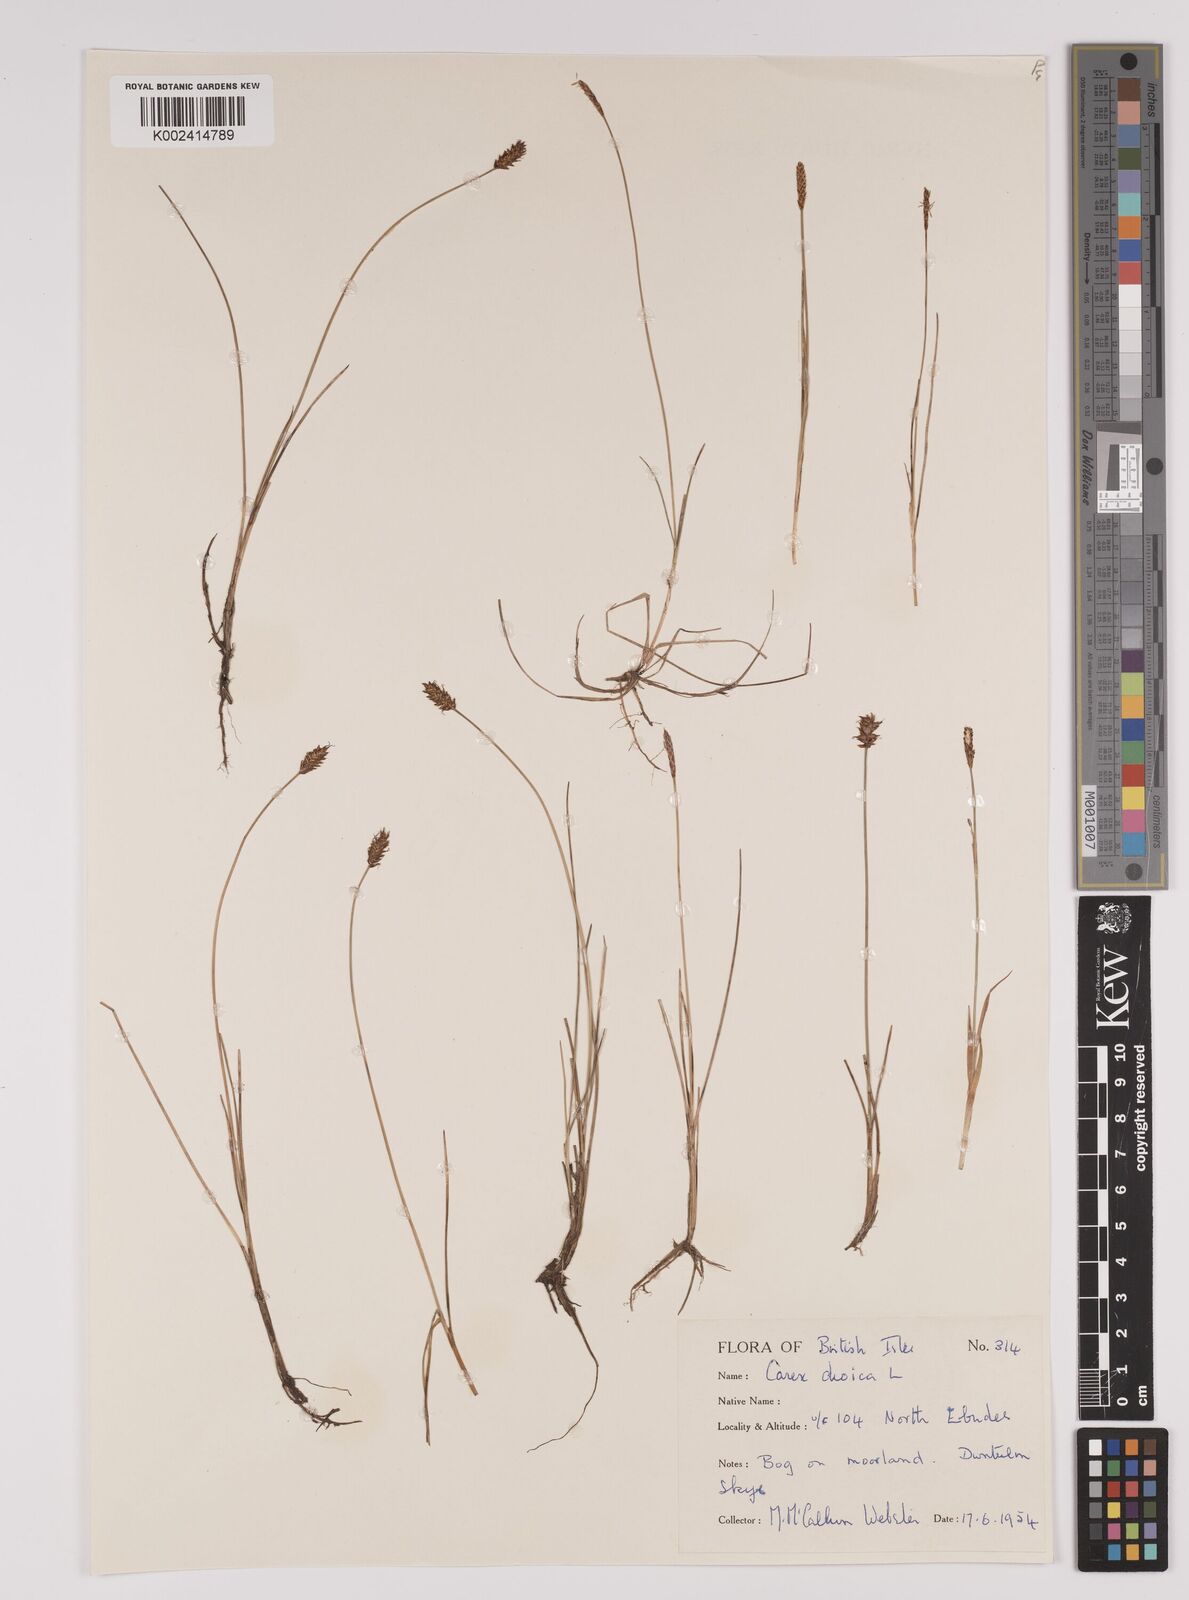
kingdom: Plantae
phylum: Tracheophyta
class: Liliopsida
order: Poales
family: Cyperaceae
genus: Carex
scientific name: Carex dioica
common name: Dioecious sedge
